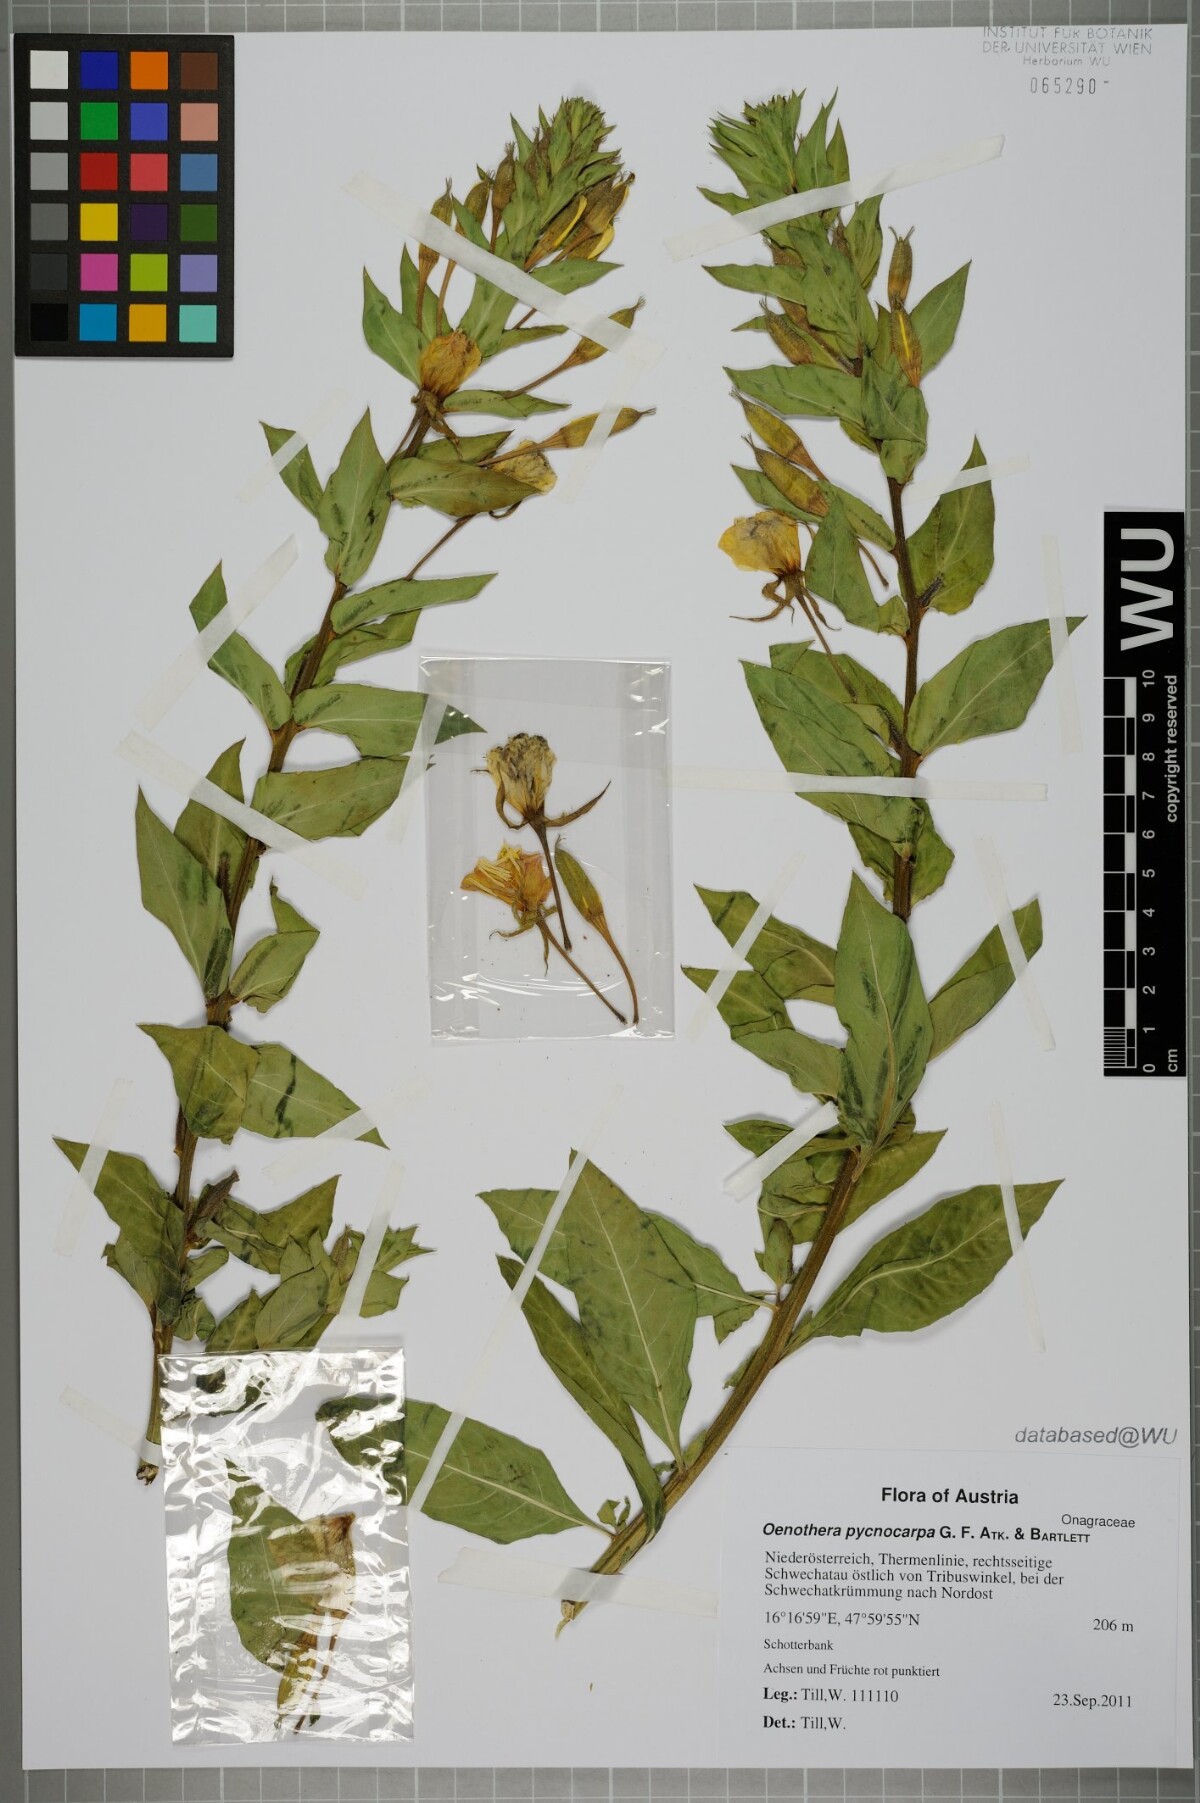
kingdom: Plantae
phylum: Tracheophyta
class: Magnoliopsida
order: Myrtales
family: Onagraceae
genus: Oenothera
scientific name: Oenothera biennis
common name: Common evening-primrose
